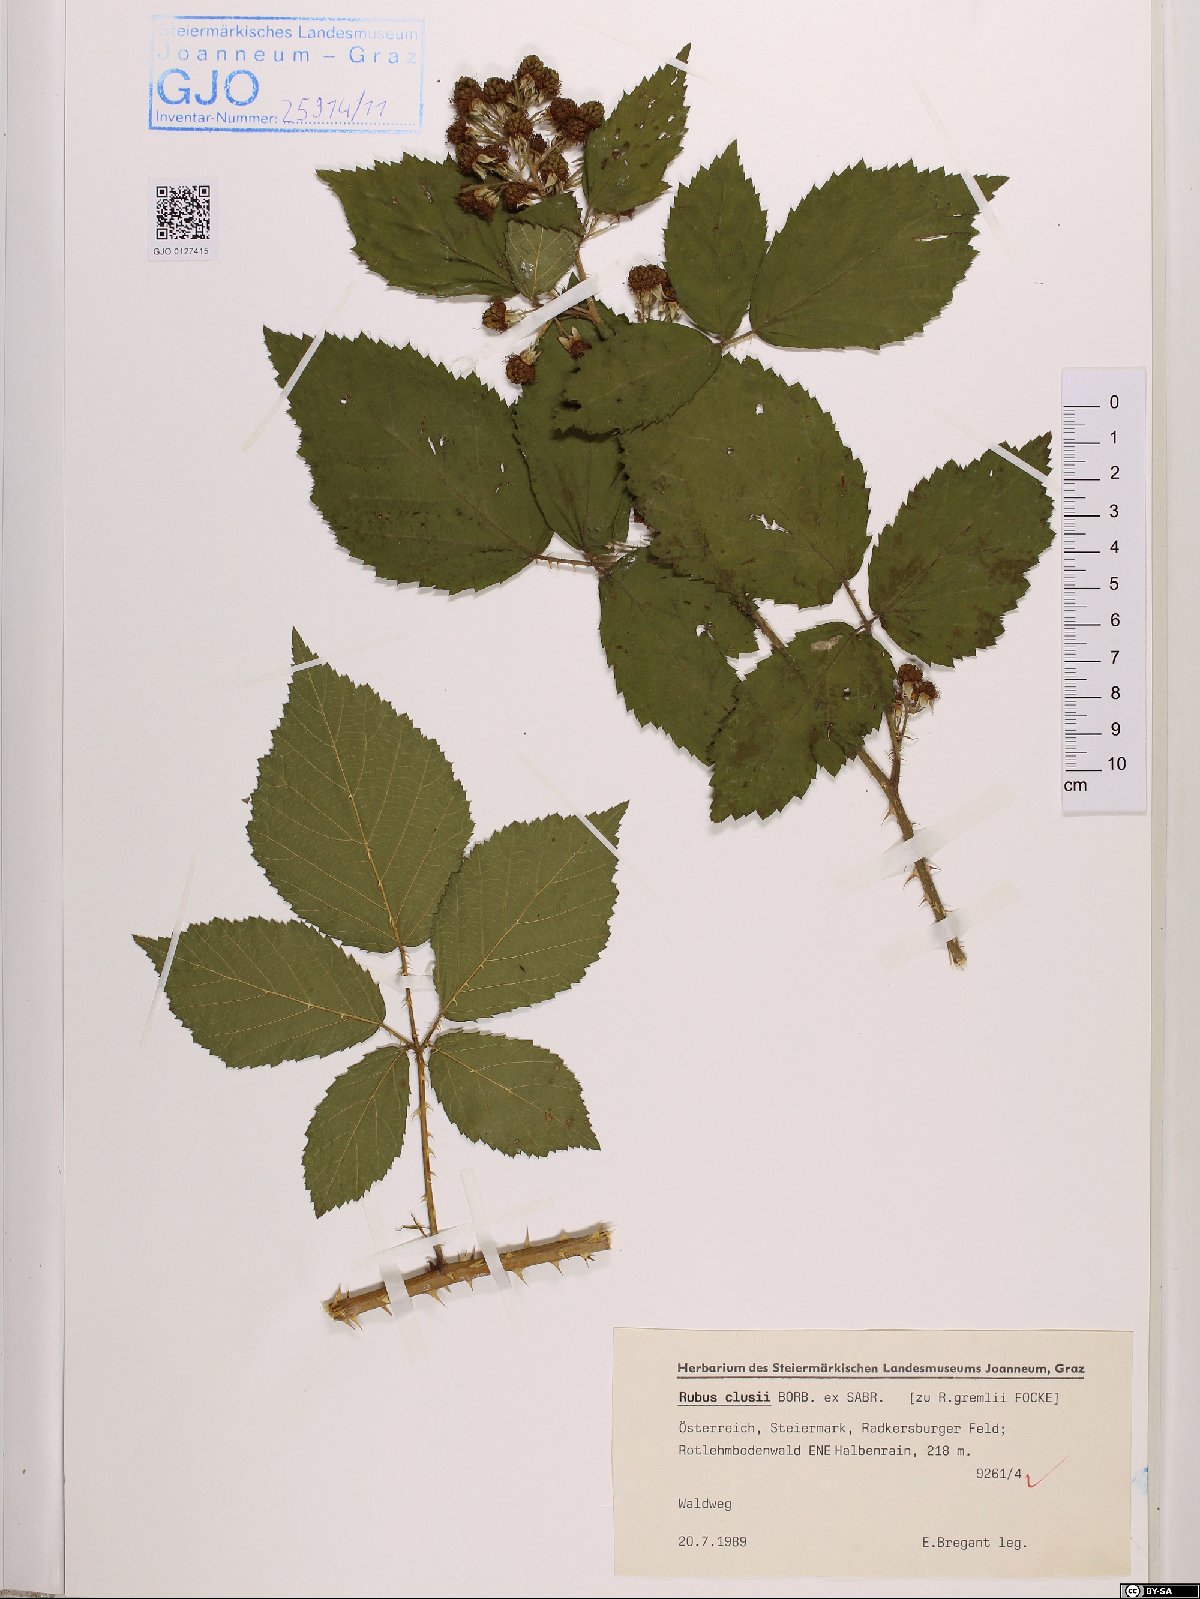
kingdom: Plantae
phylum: Tracheophyta
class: Magnoliopsida
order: Rosales
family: Rosaceae
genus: Rubus
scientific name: Rubus clusii
